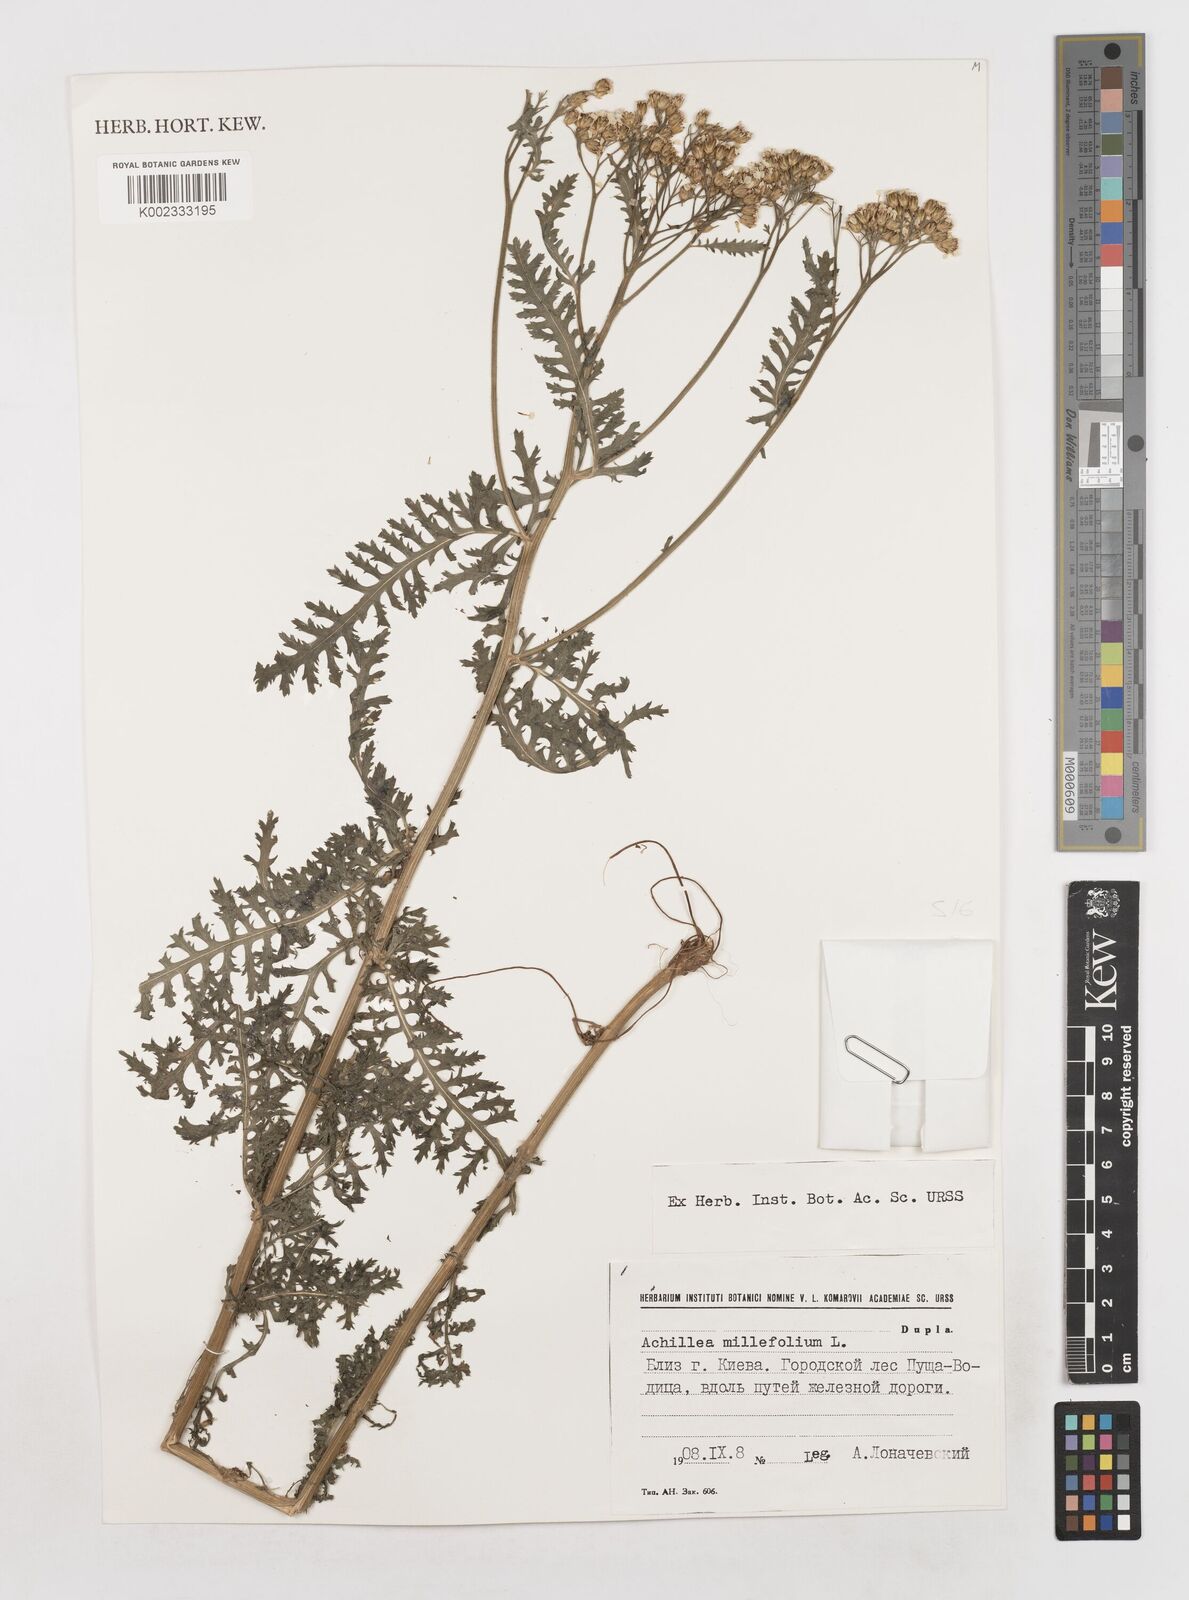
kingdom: Plantae
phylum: Tracheophyta
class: Magnoliopsida
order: Asterales
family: Asteraceae
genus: Achillea
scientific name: Achillea millefolium
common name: Yarrow
